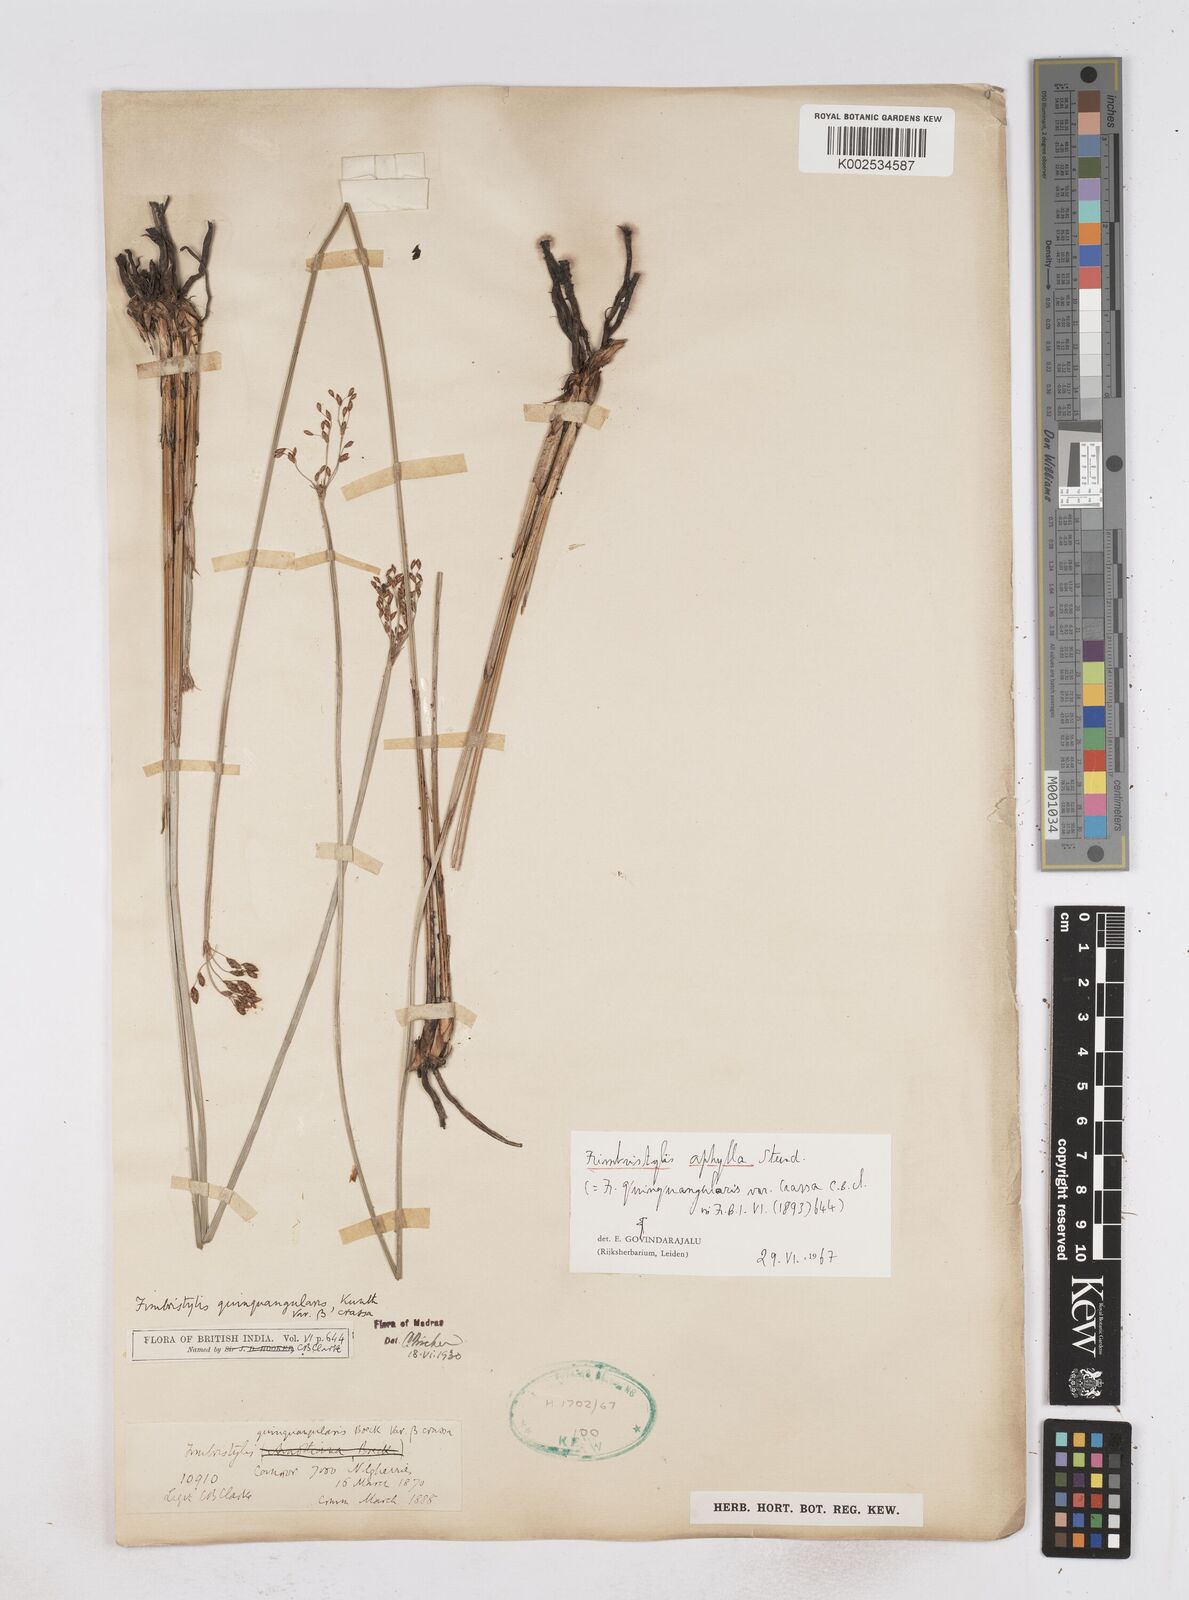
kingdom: Plantae
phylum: Tracheophyta
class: Liliopsida
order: Poales
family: Cyperaceae
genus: Fimbristylis
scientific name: Fimbristylis aphylla
